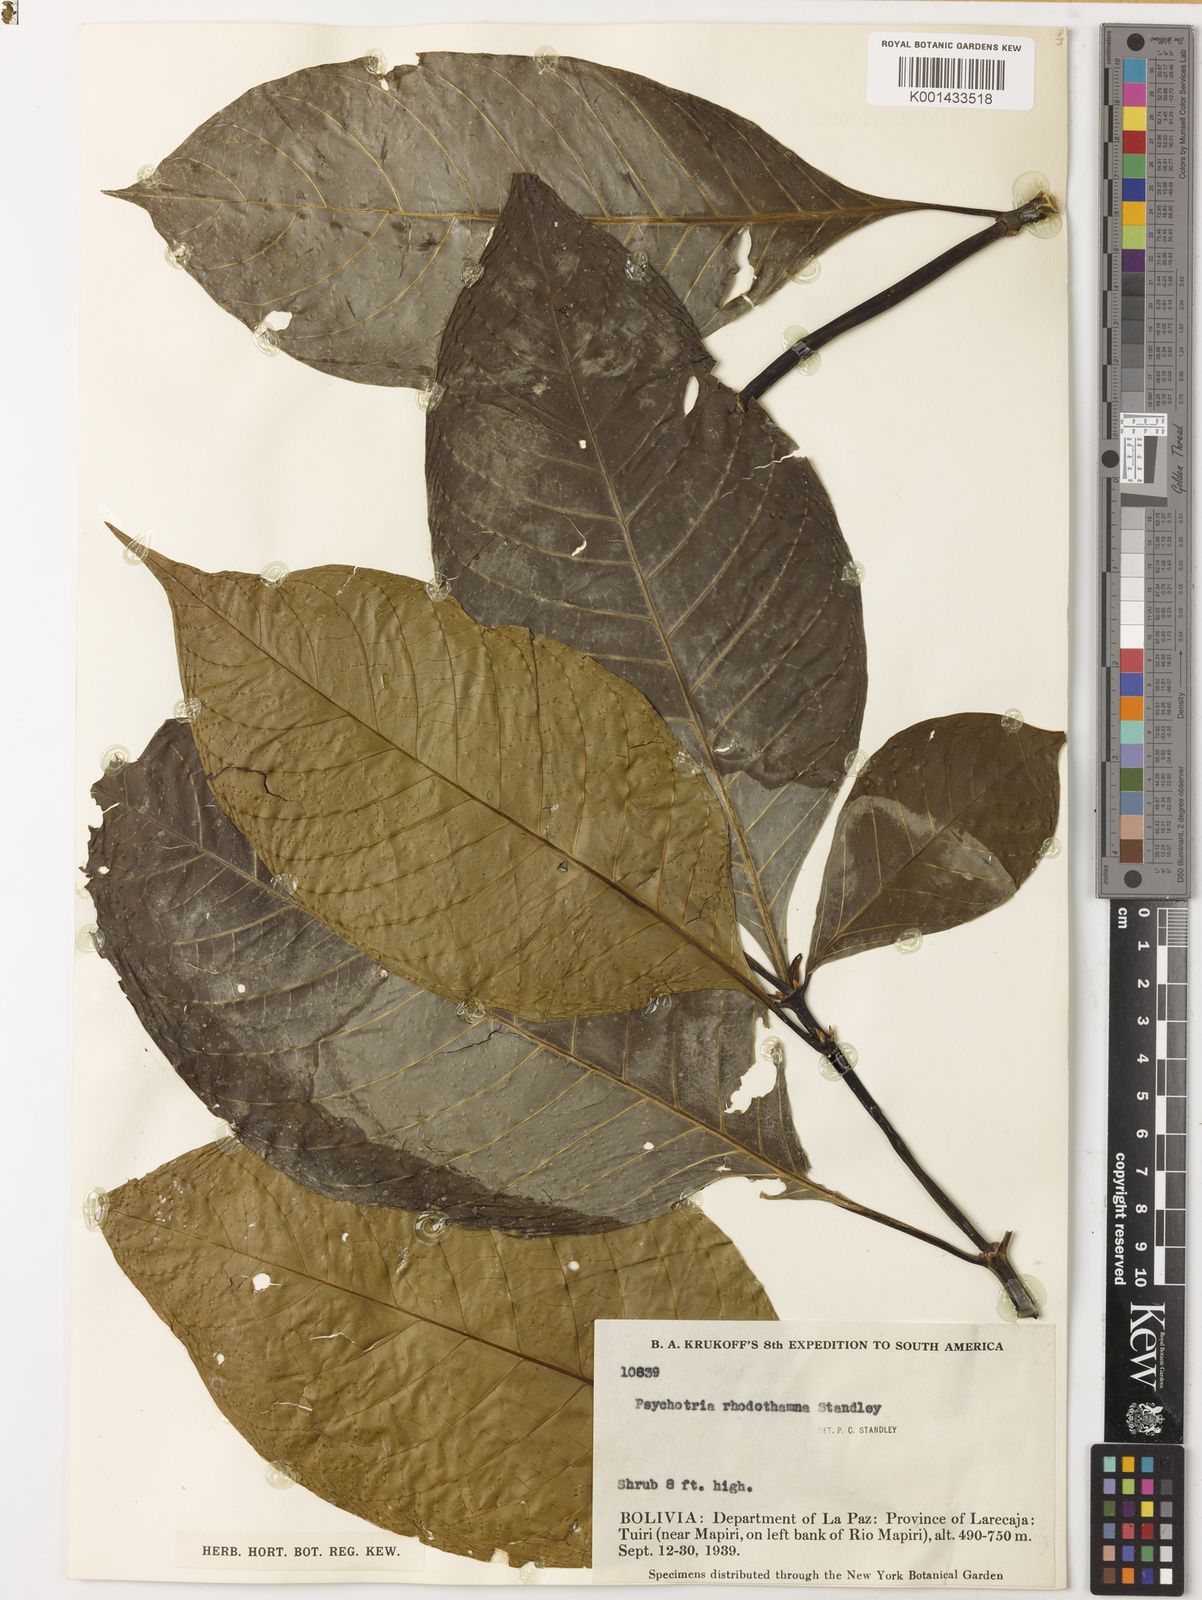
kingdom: Plantae
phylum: Tracheophyta
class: Magnoliopsida
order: Gentianales
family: Rubiaceae
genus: Palicourea
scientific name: Palicourea rhodothamna
